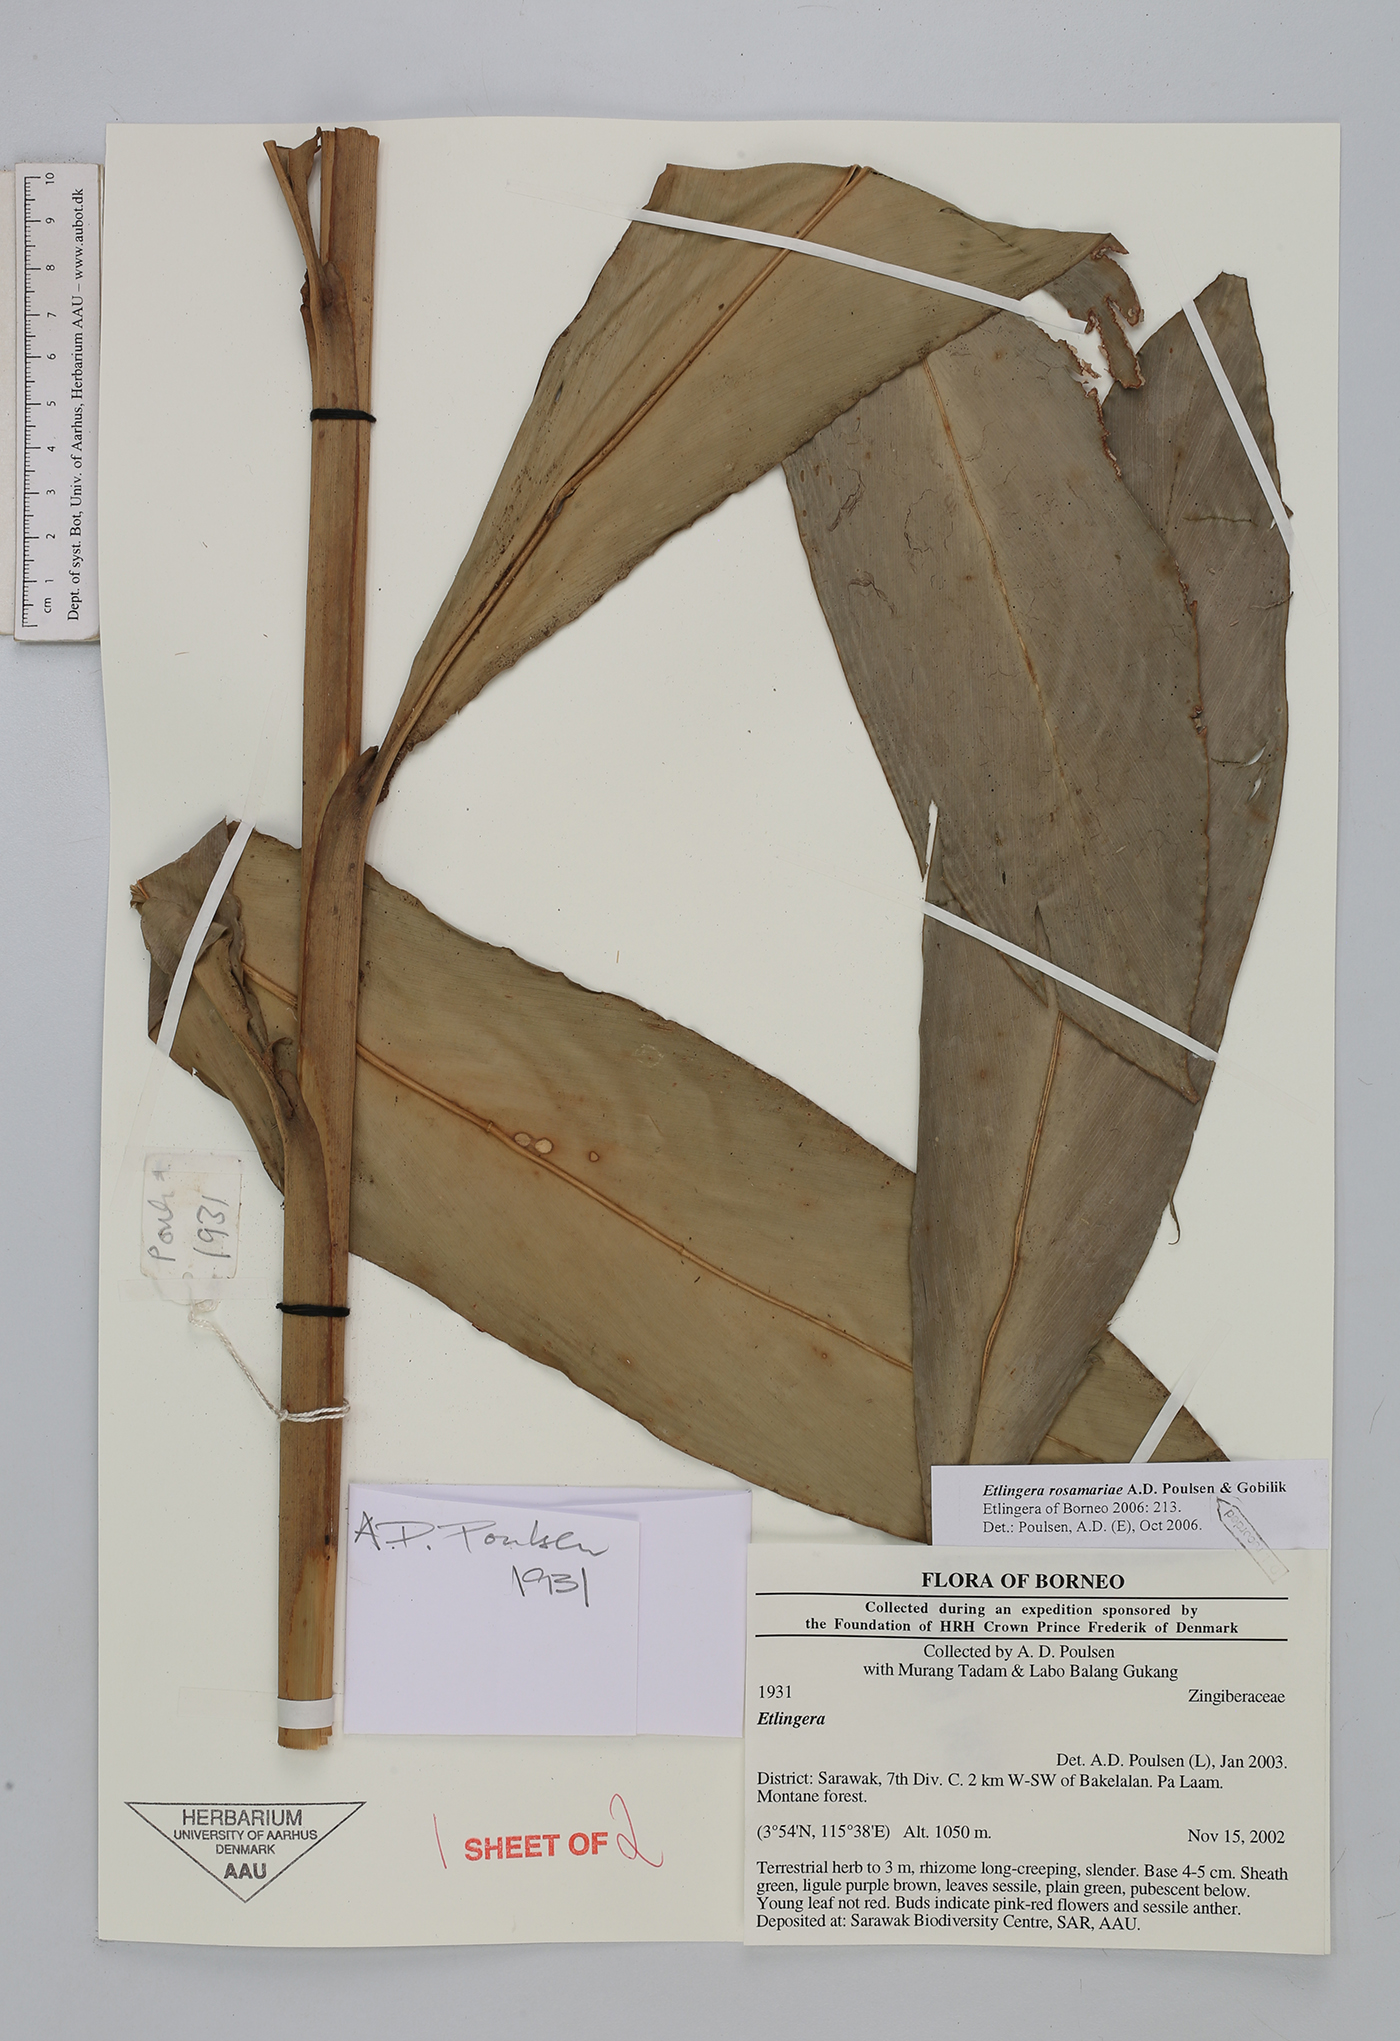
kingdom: Plantae
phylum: Tracheophyta
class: Liliopsida
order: Zingiberales
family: Zingiberaceae
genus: Etlingera
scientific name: Etlingera rosamariae
